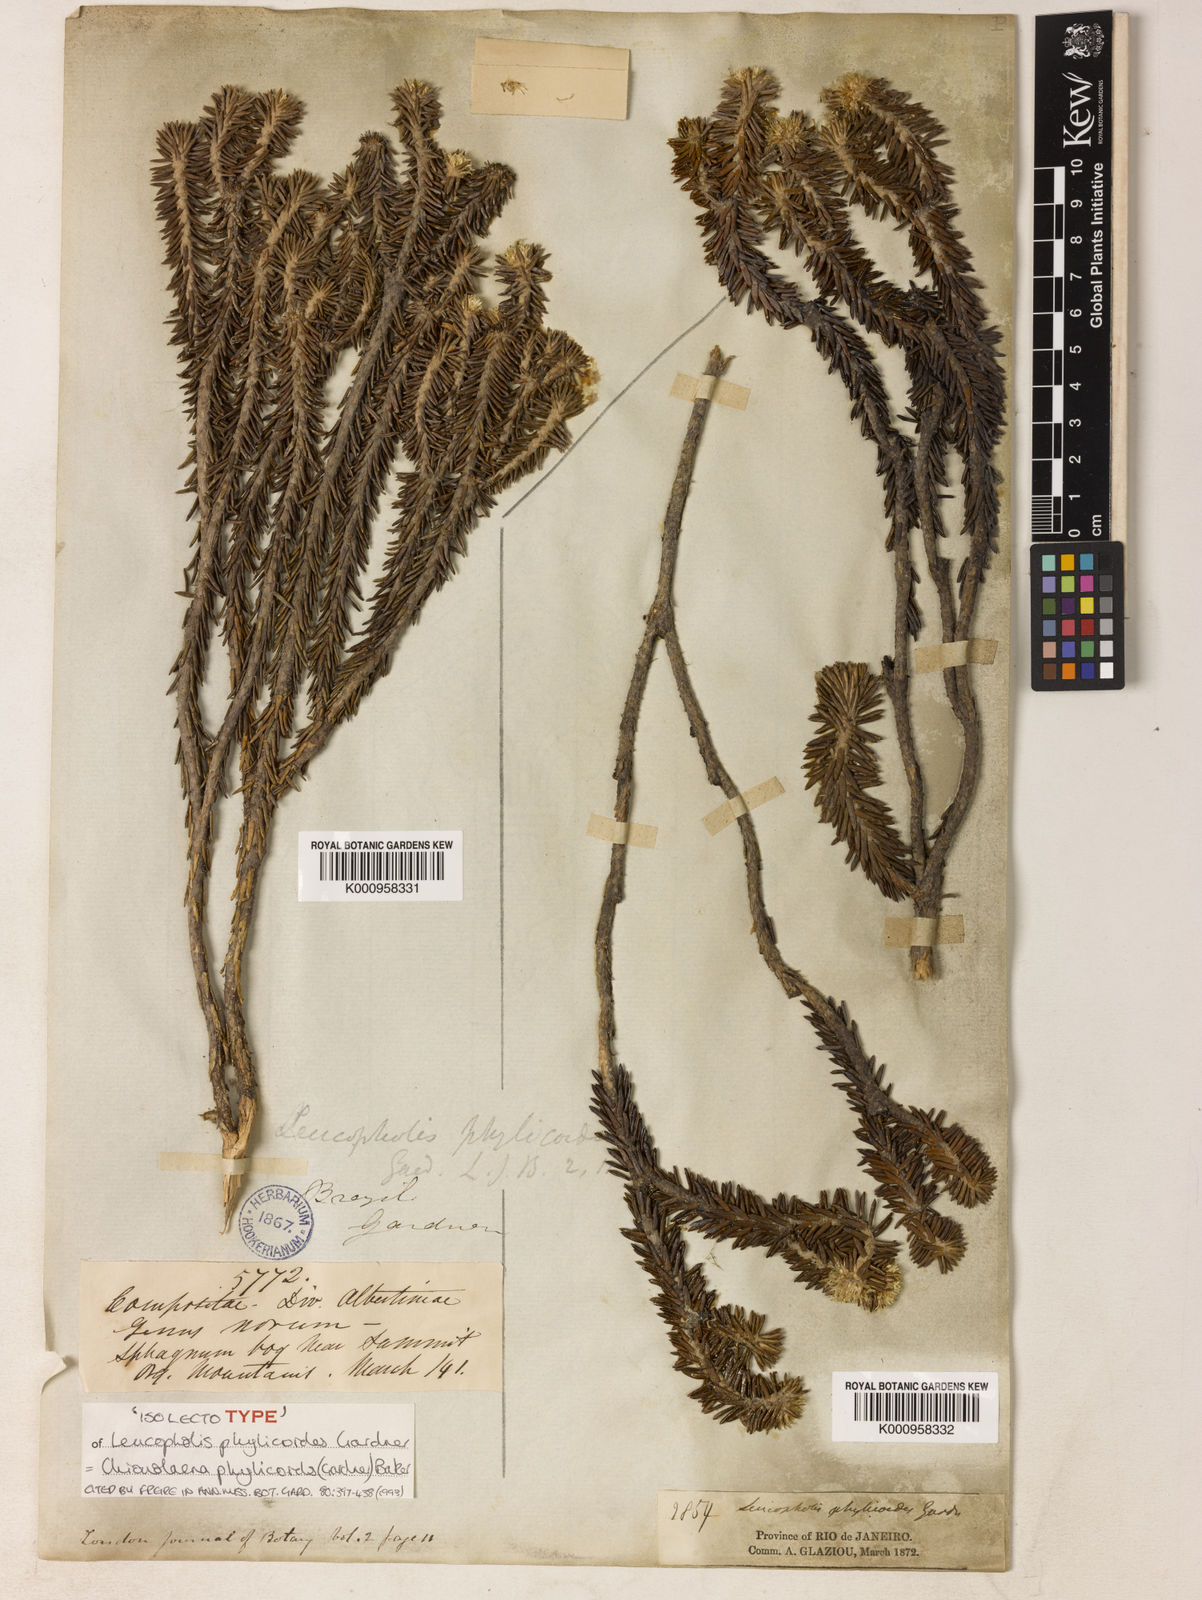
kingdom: Plantae
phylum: Tracheophyta
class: Magnoliopsida
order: Asterales
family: Asteraceae
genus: Chionolaena
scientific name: Chionolaena phylicoides
